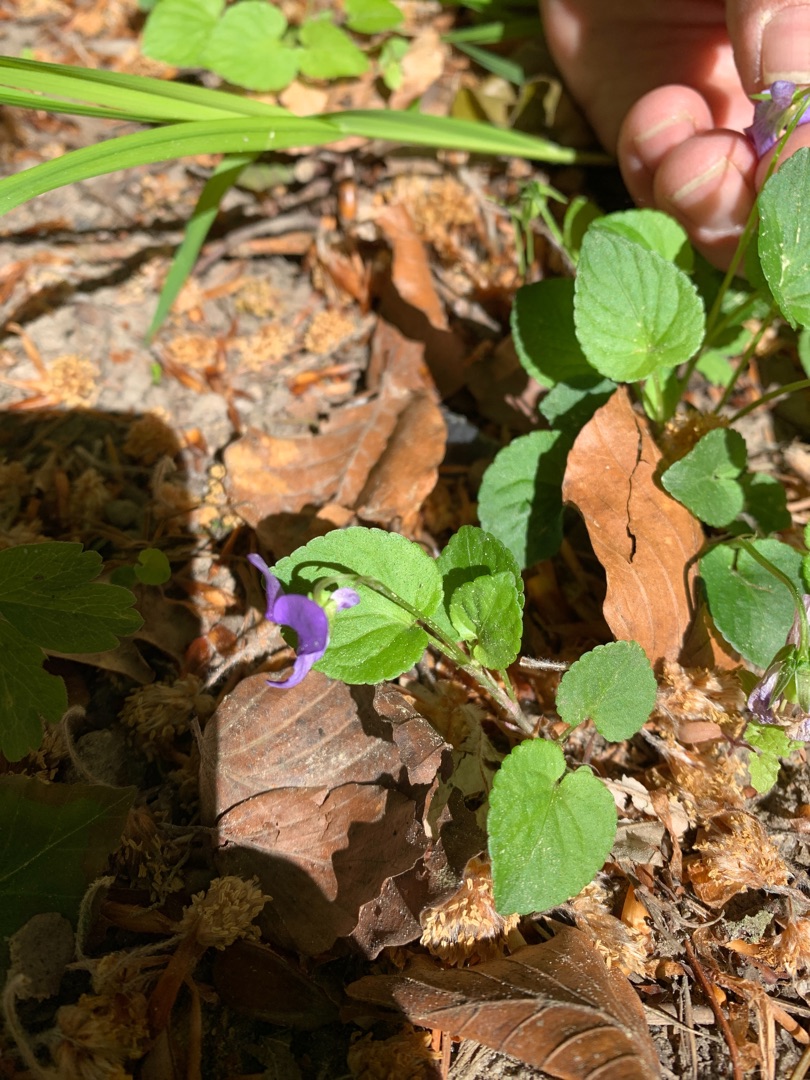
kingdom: Plantae
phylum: Tracheophyta
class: Magnoliopsida
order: Malpighiales
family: Violaceae
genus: Viola
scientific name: Viola reichenbachiana
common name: Skov-viol
